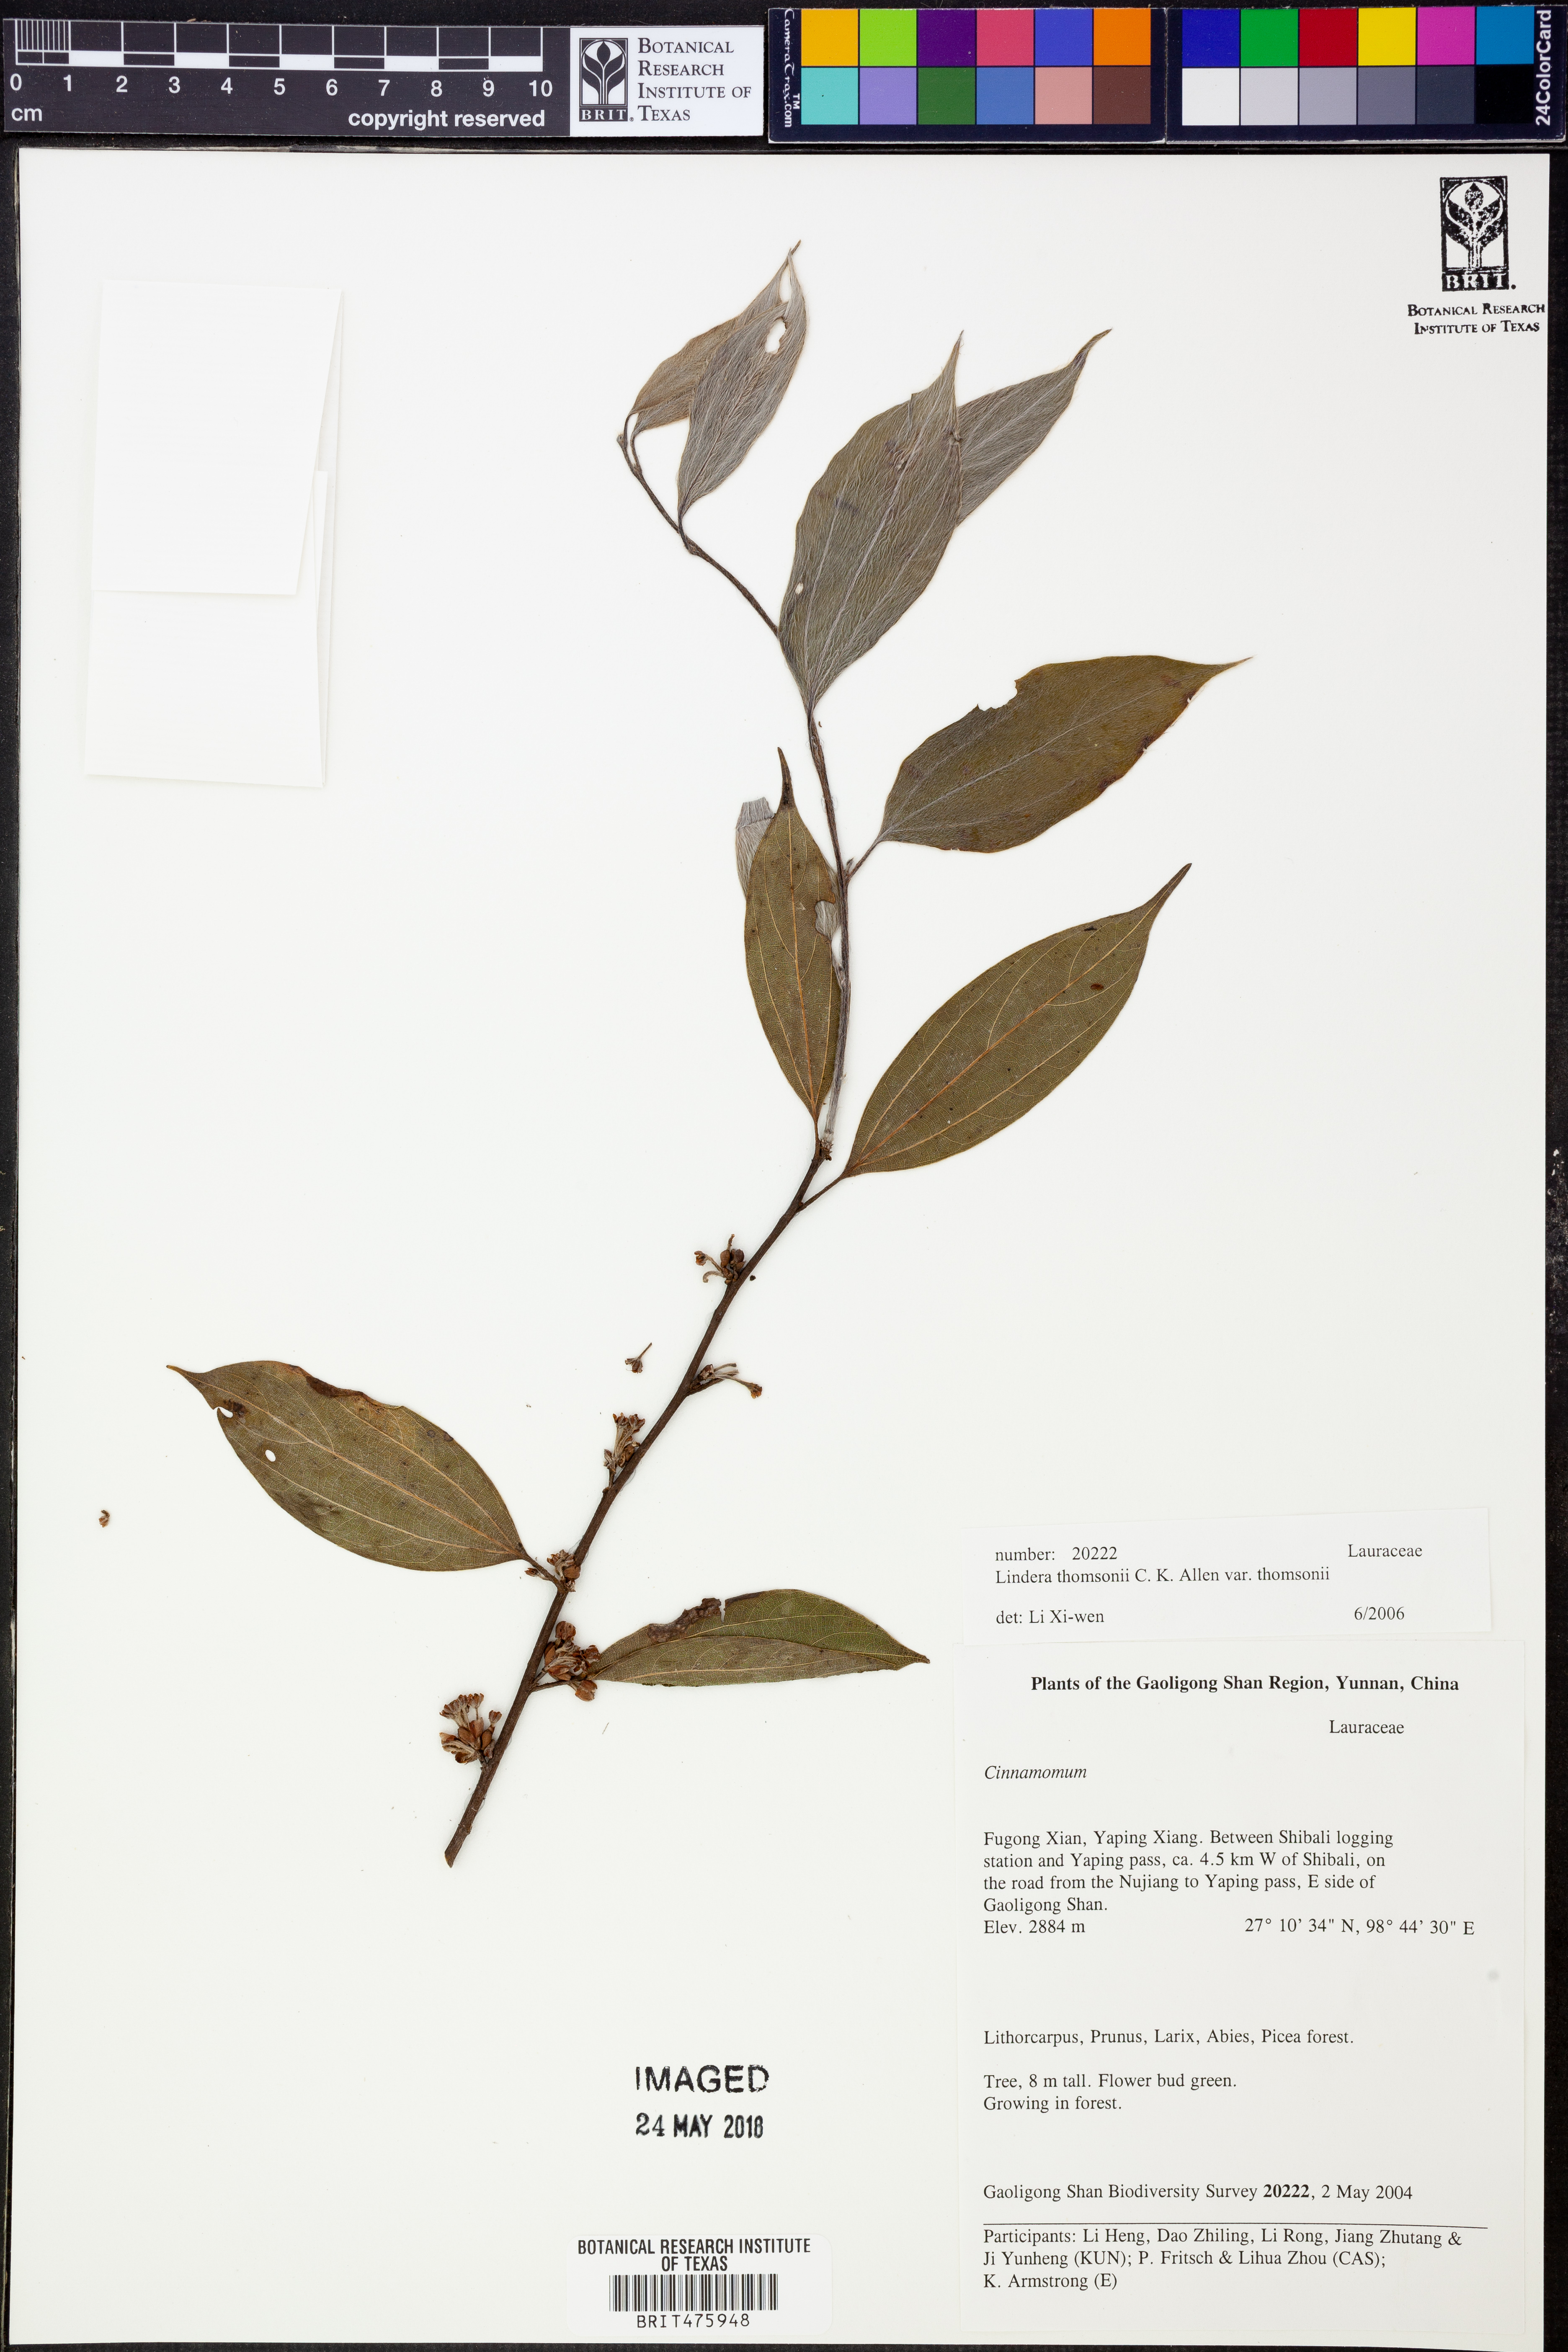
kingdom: Plantae
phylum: Tracheophyta
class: Magnoliopsida
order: Laurales
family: Lauraceae
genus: Lindera
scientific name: Lindera thomsonii
